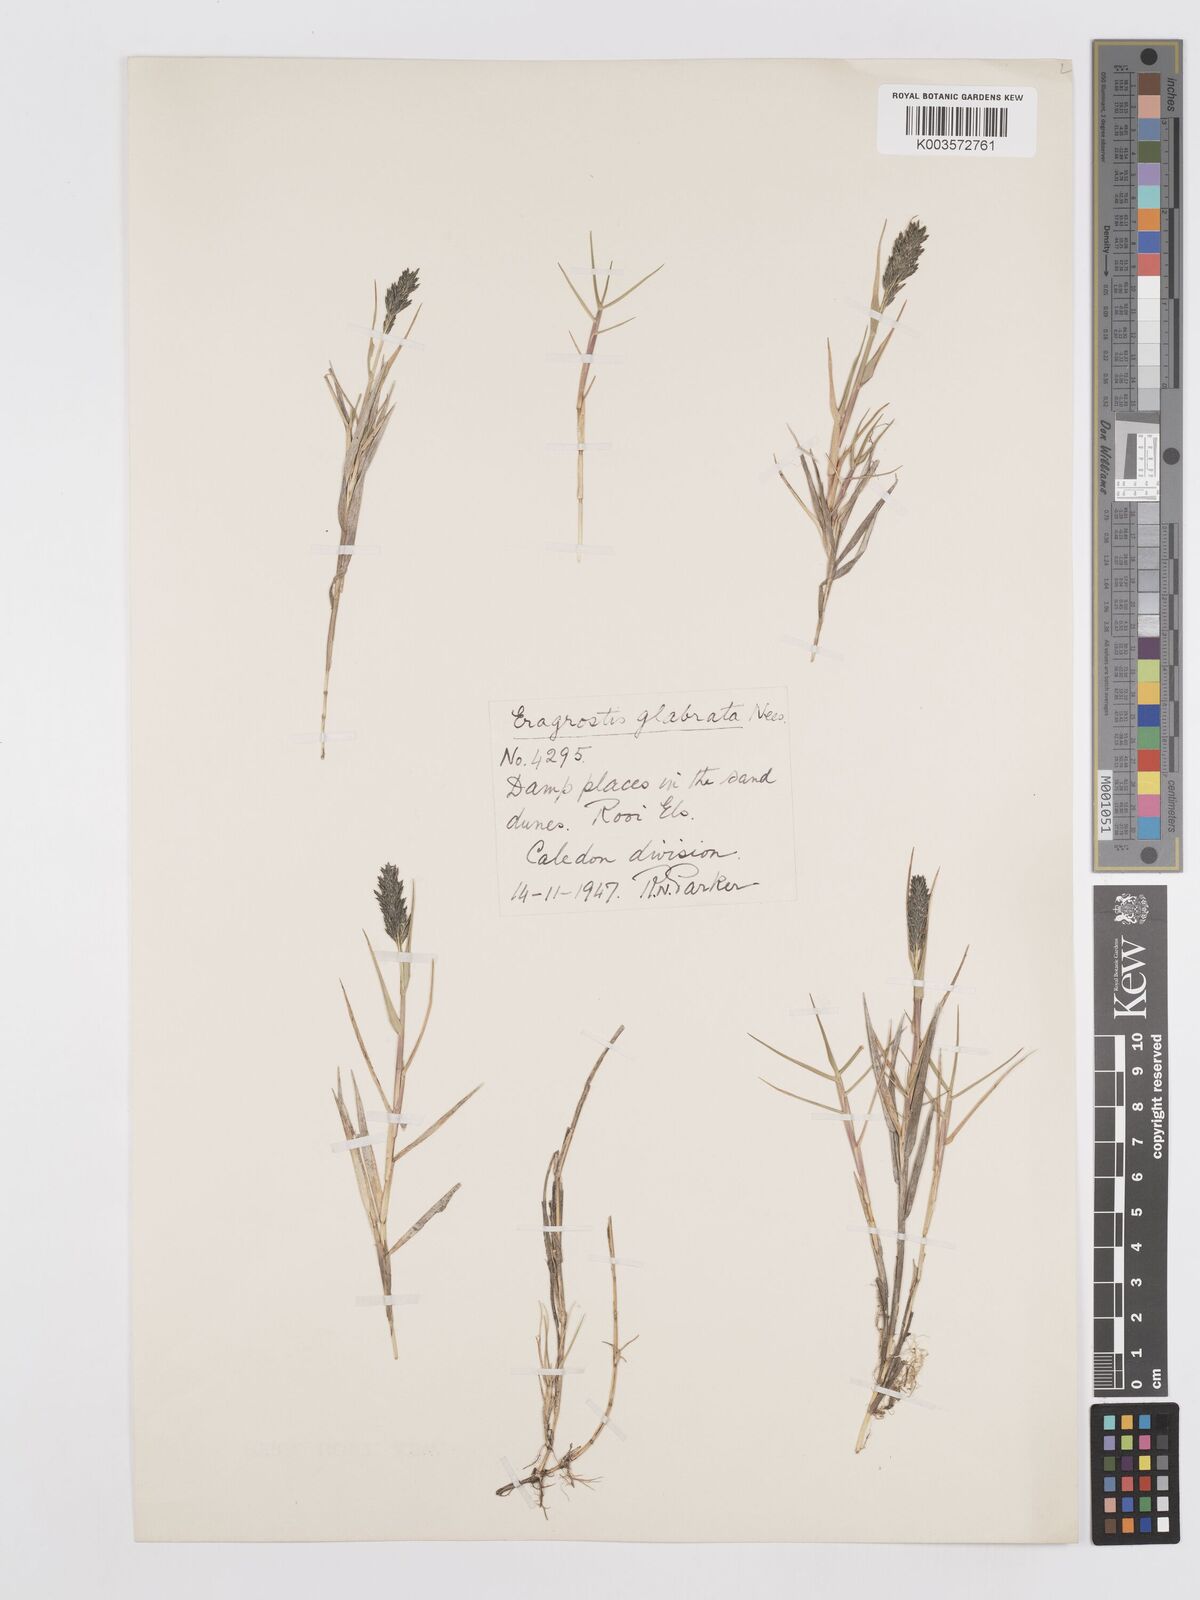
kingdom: Plantae
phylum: Tracheophyta
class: Liliopsida
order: Poales
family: Poaceae
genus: Eragrostis
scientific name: Eragrostis sabulosa
